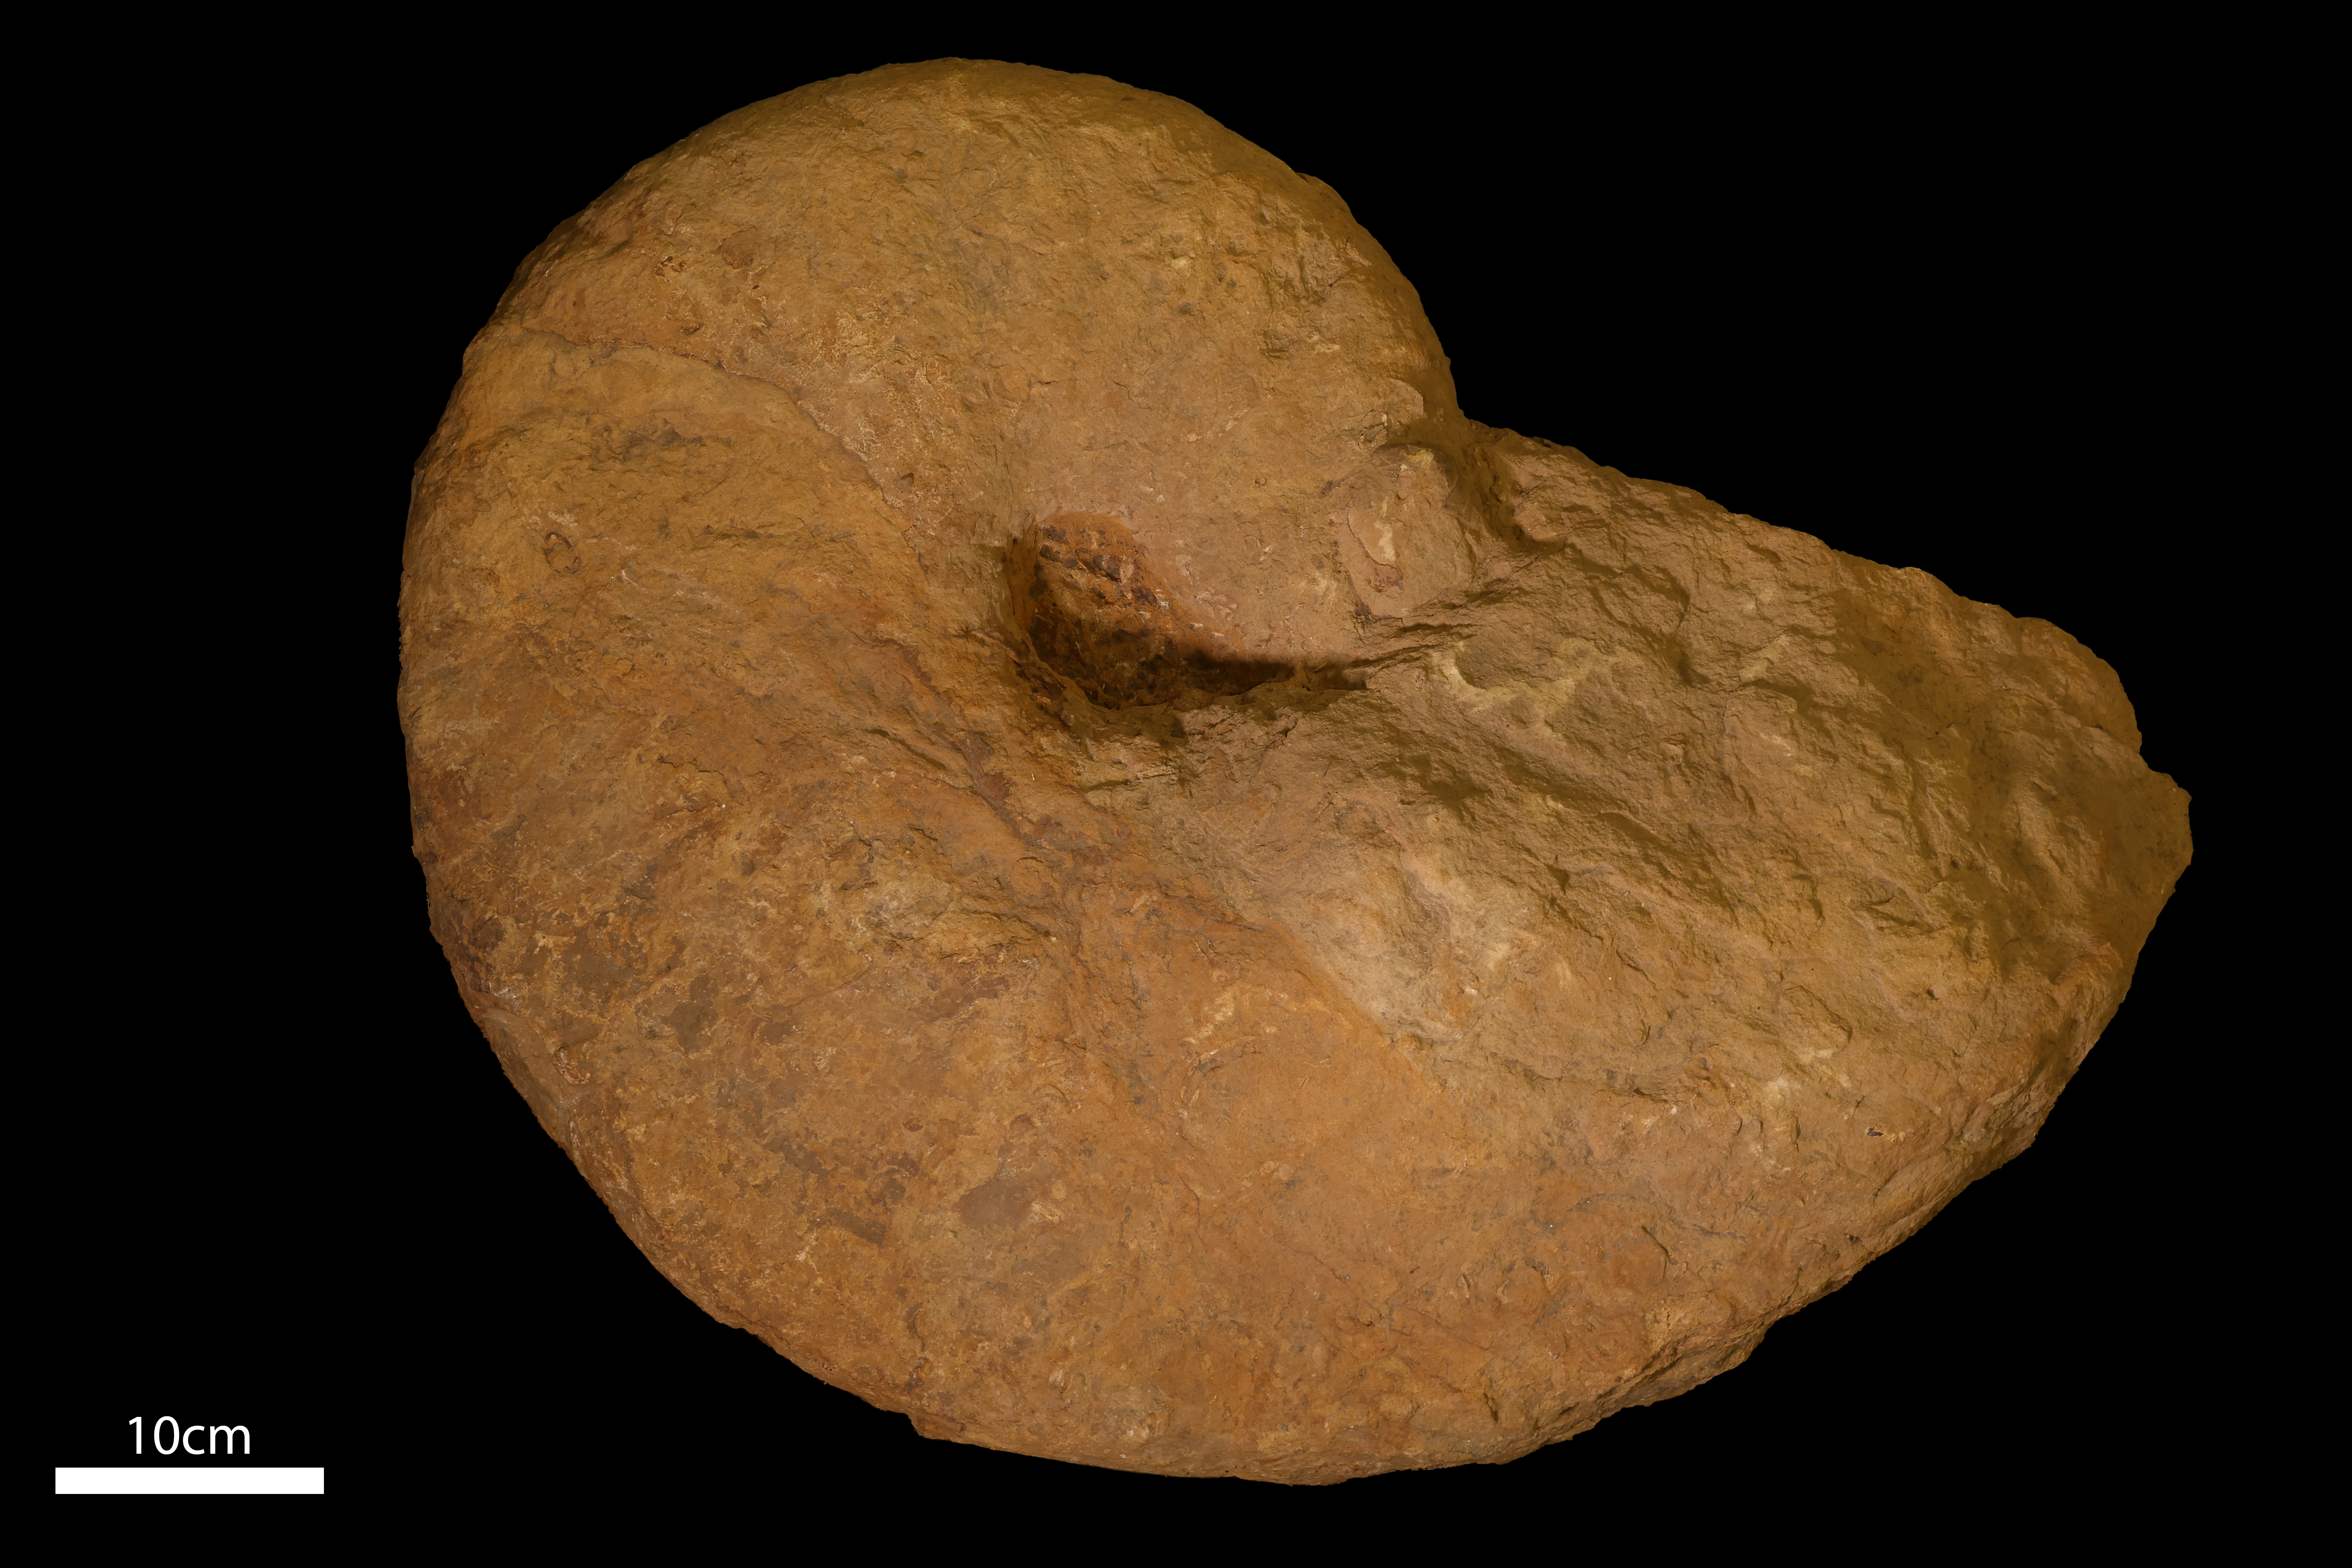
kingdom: Animalia
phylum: Mollusca
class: Cephalopoda
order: Nautilida
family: Nautilidae
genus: Cenoceras
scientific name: Cenoceras
